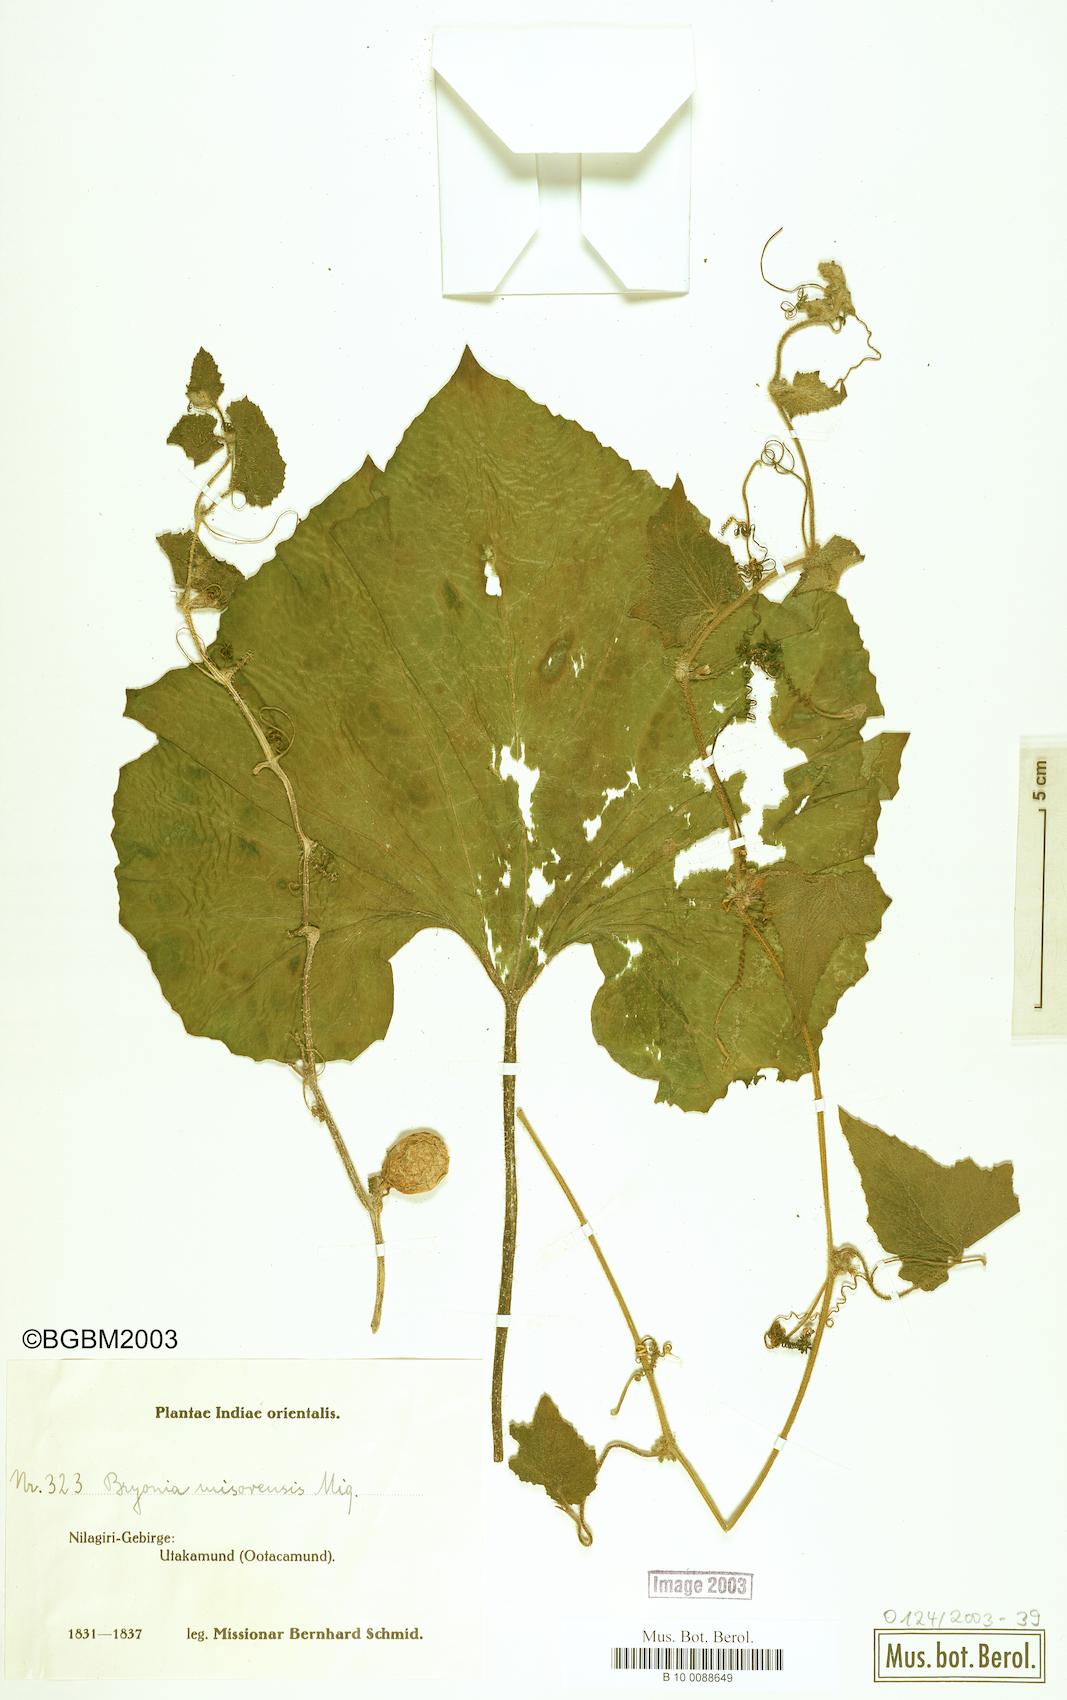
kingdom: Plantae
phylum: Tracheophyta
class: Magnoliopsida
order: Cucurbitales
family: Cucurbitaceae
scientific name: Cucurbitaceae
